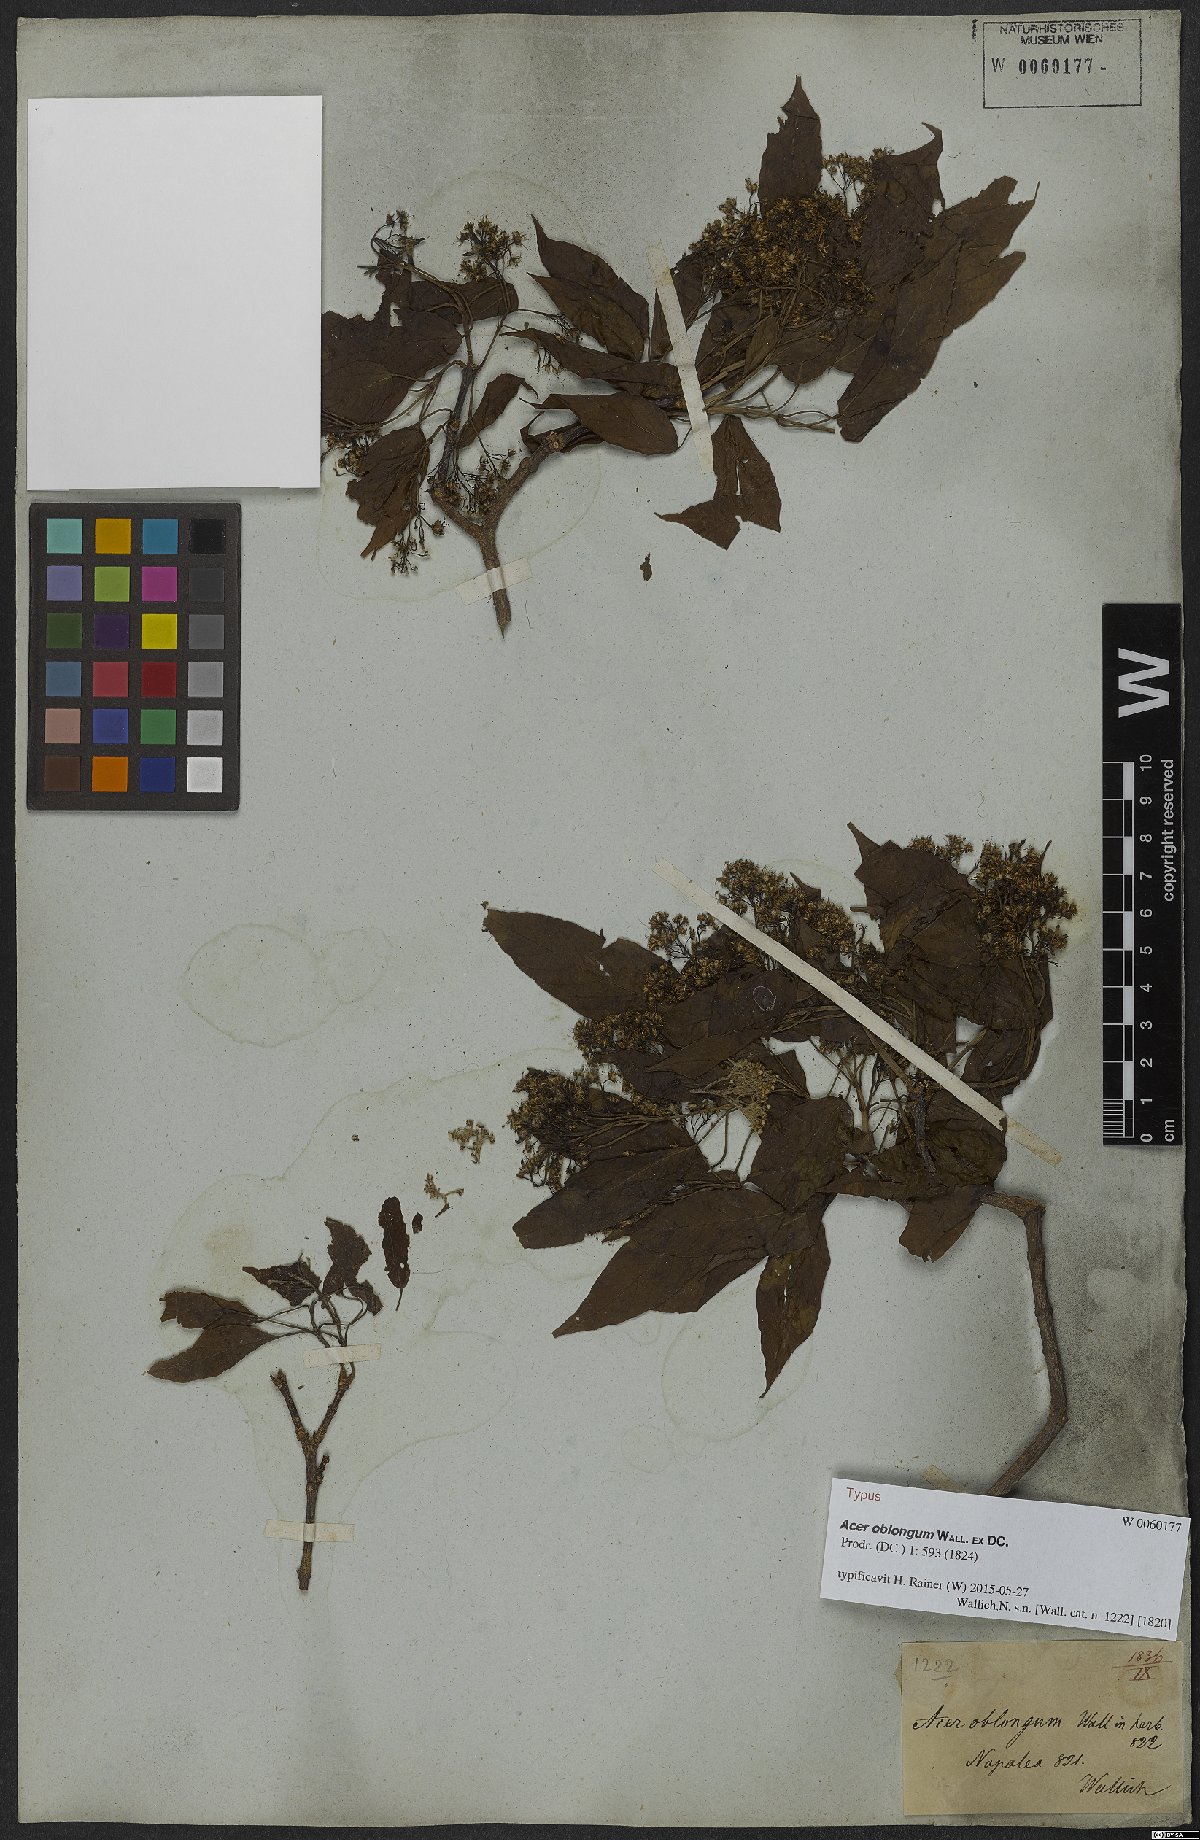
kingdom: Plantae
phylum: Tracheophyta
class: Magnoliopsida
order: Sapindales
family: Sapindaceae
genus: Acer
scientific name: Acer oblongum
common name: Himalayan maple
